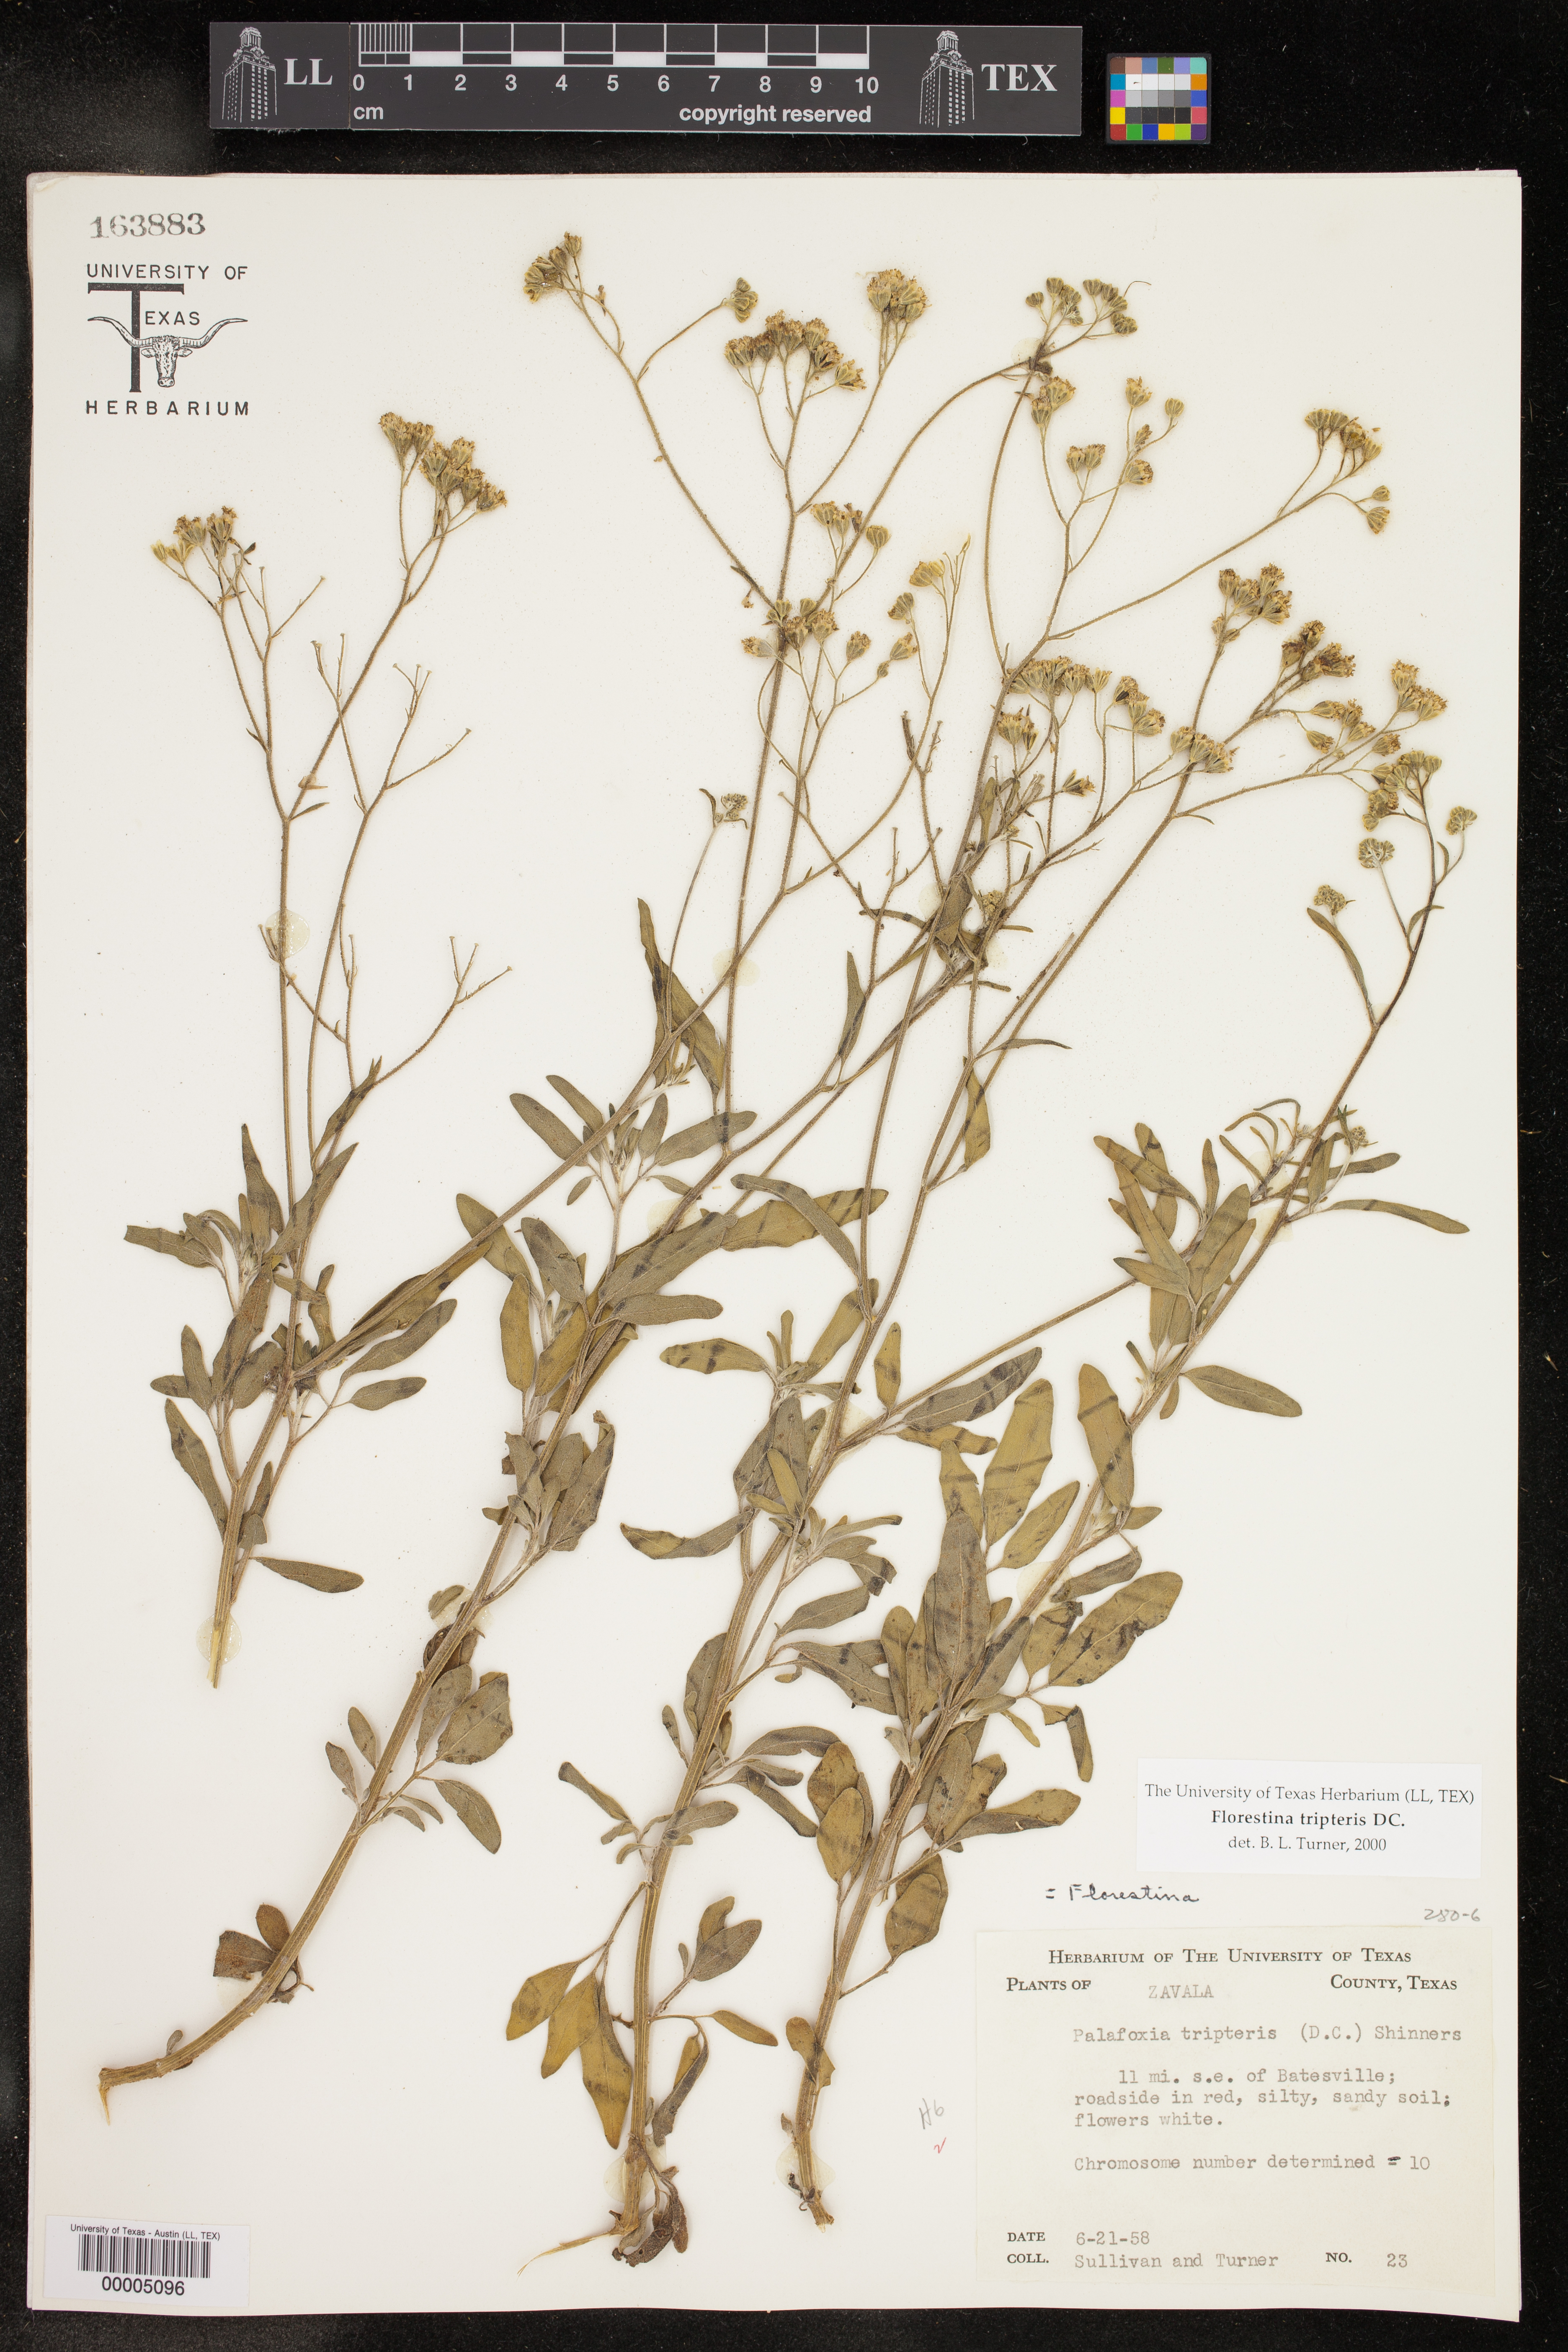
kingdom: Plantae
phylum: Tracheophyta
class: Magnoliopsida
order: Asterales
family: Asteraceae
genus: Florestina
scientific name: Florestina tripteris
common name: Sticky florestina
